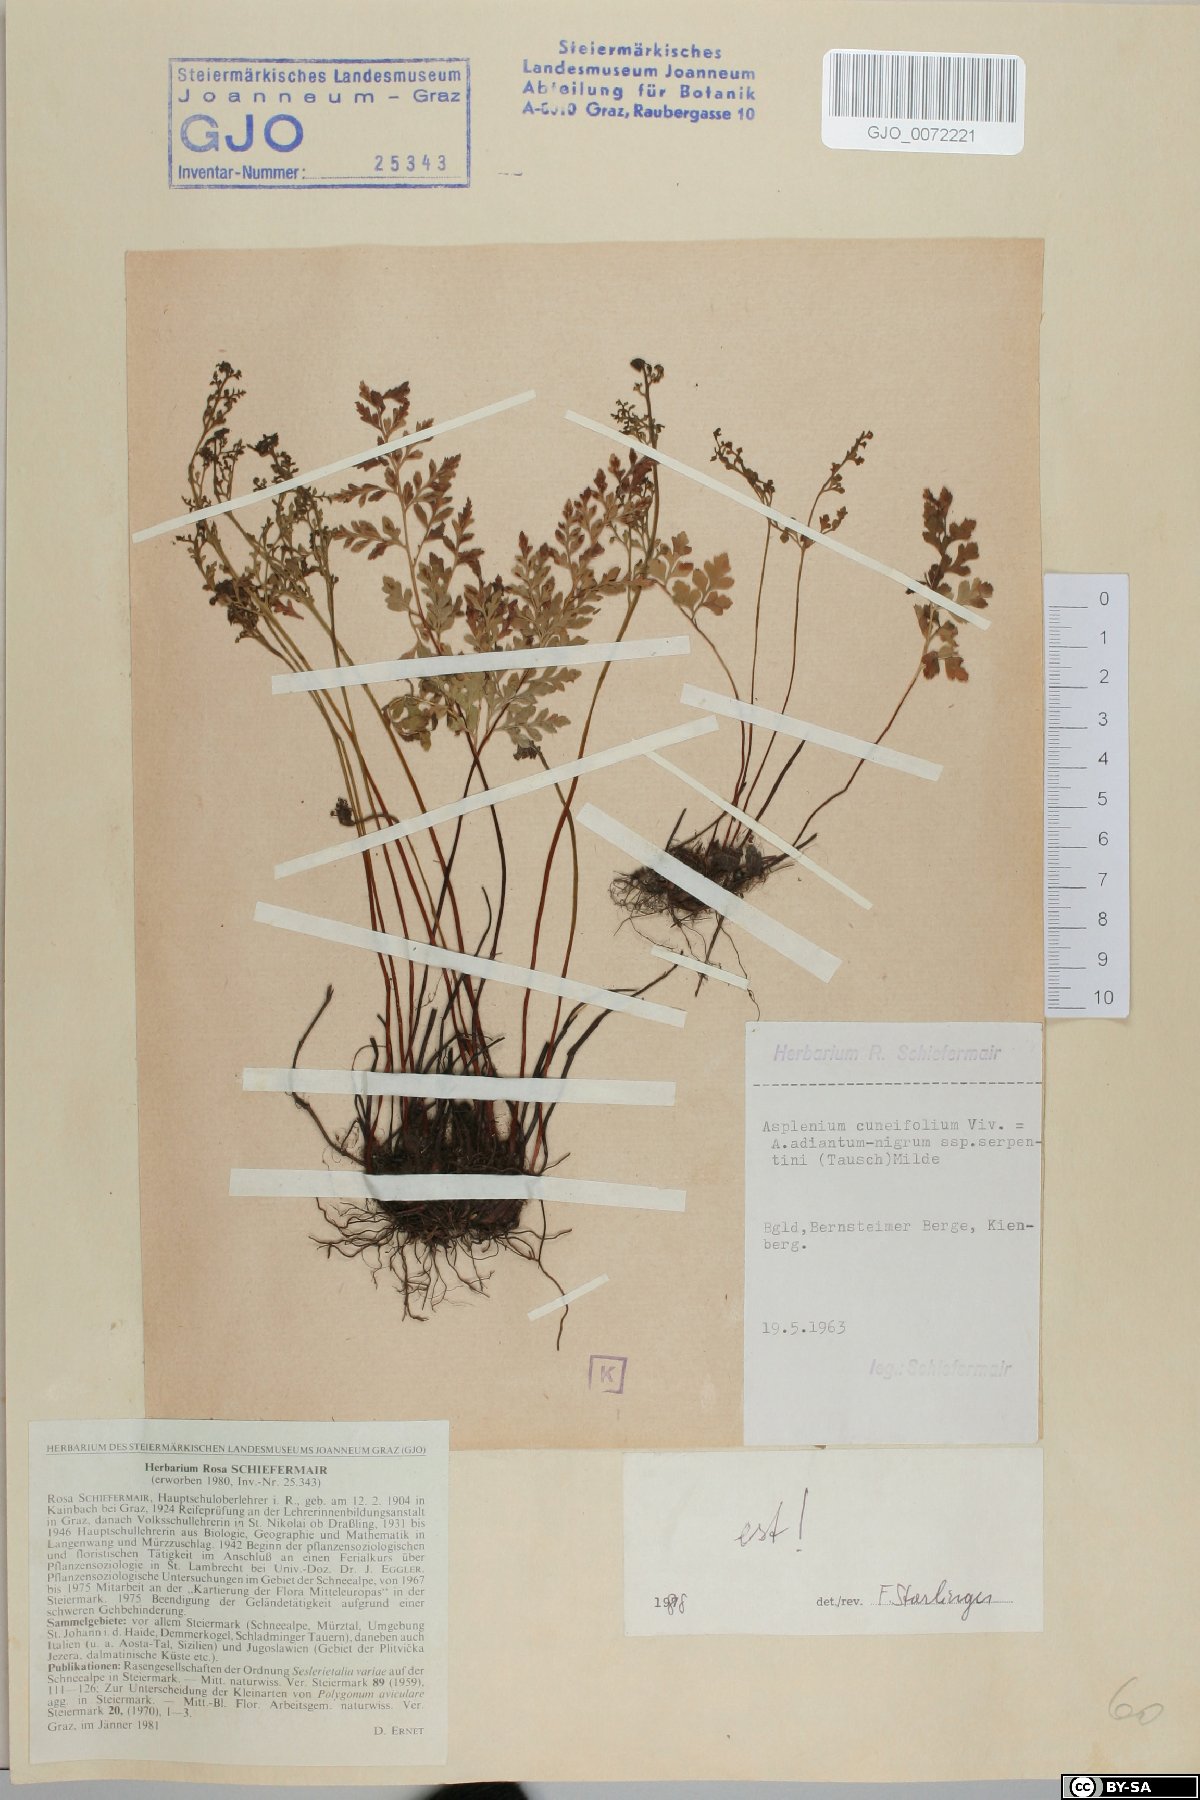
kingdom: Plantae
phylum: Tracheophyta
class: Polypodiopsida
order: Polypodiales
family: Aspleniaceae
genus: Asplenium
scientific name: Asplenium cuneifolium
